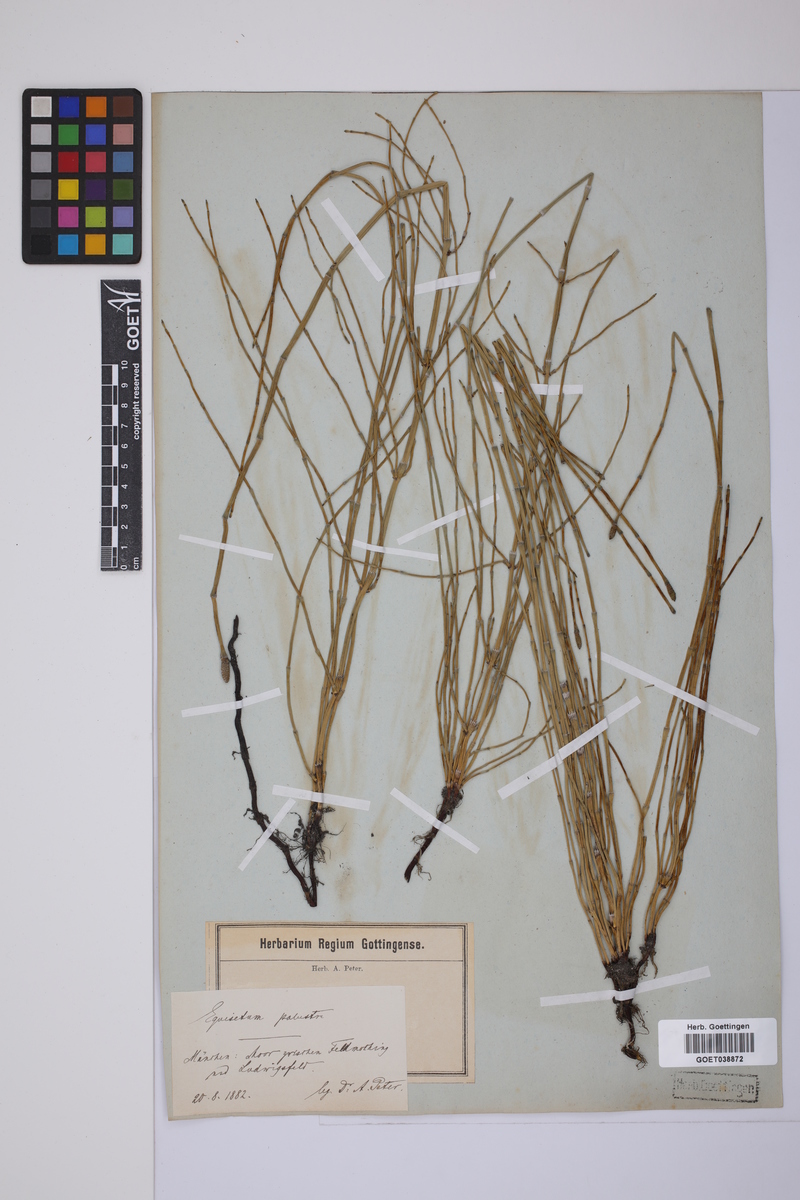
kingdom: Plantae
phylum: Tracheophyta
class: Polypodiopsida
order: Equisetales
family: Equisetaceae
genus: Equisetum
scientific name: Equisetum palustre
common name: Marsh horsetail
